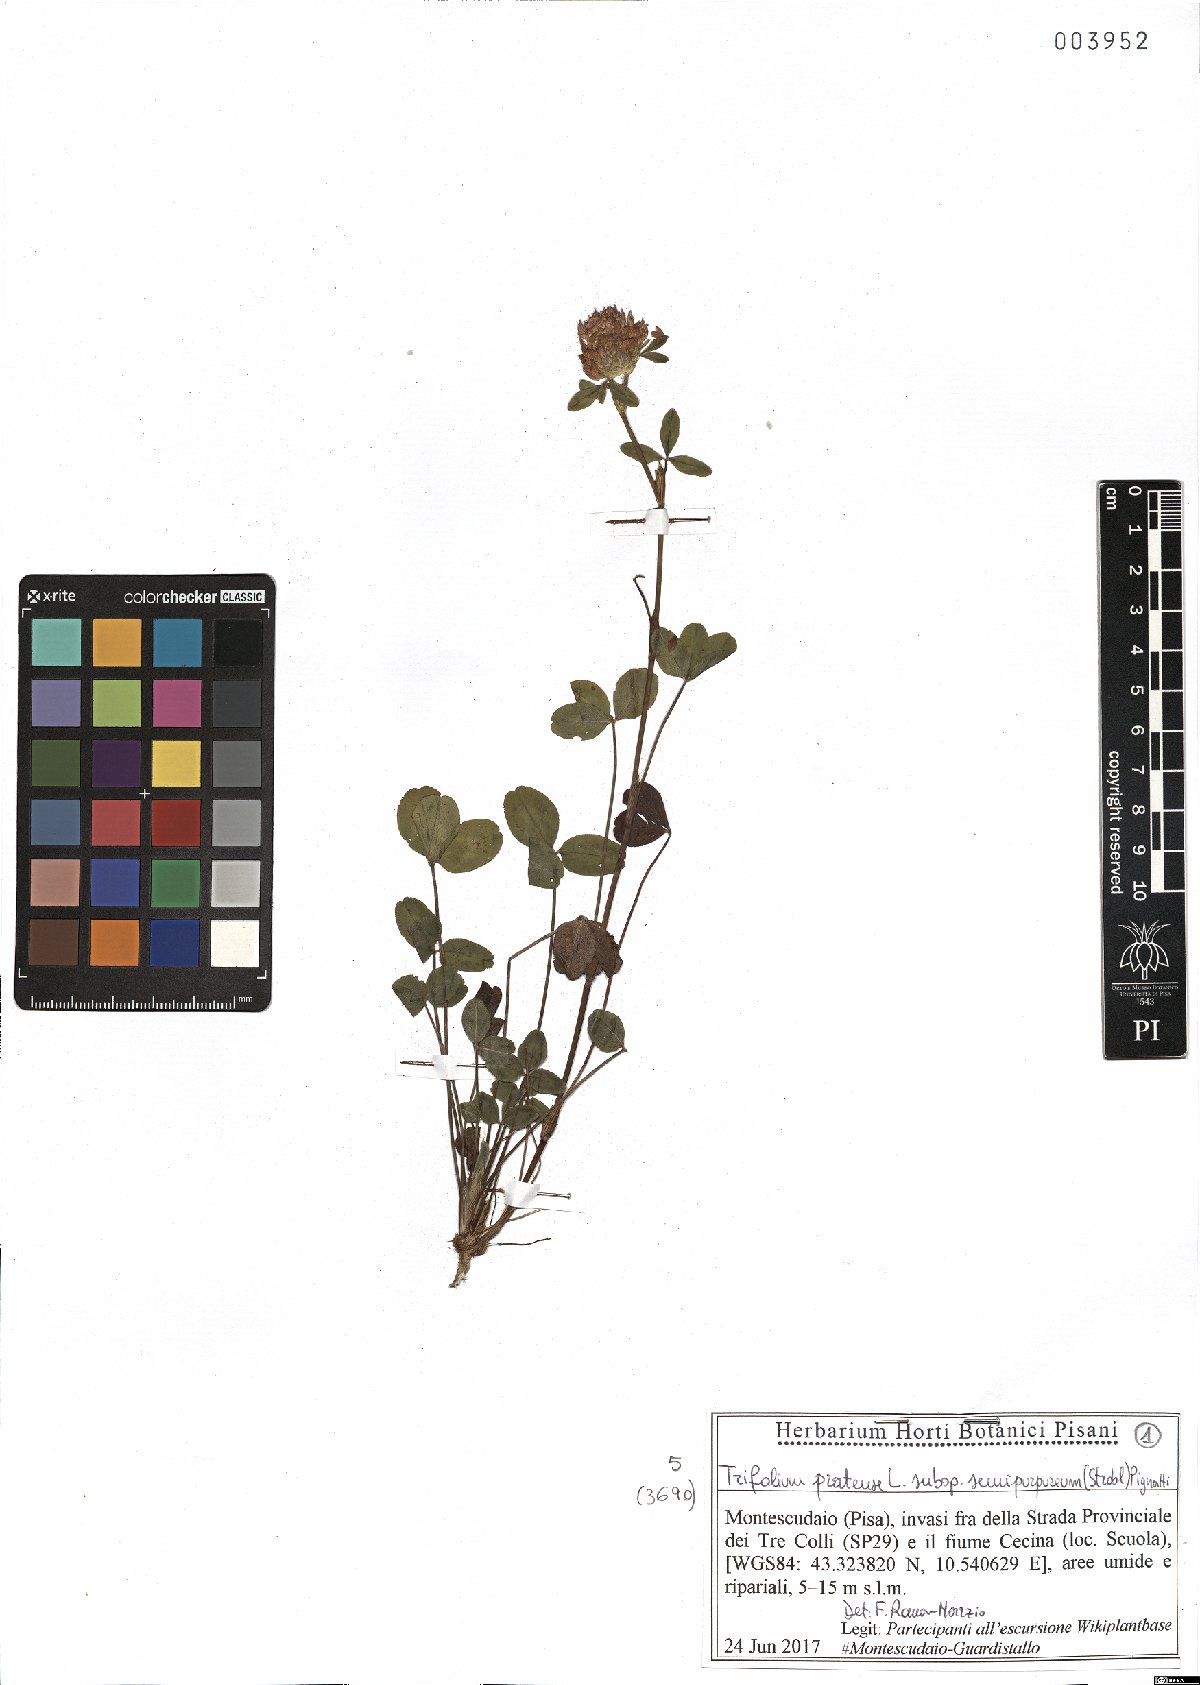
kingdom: Plantae
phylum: Tracheophyta
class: Magnoliopsida
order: Fabales
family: Fabaceae
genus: Trifolium
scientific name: Trifolium pratense
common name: Red clover
